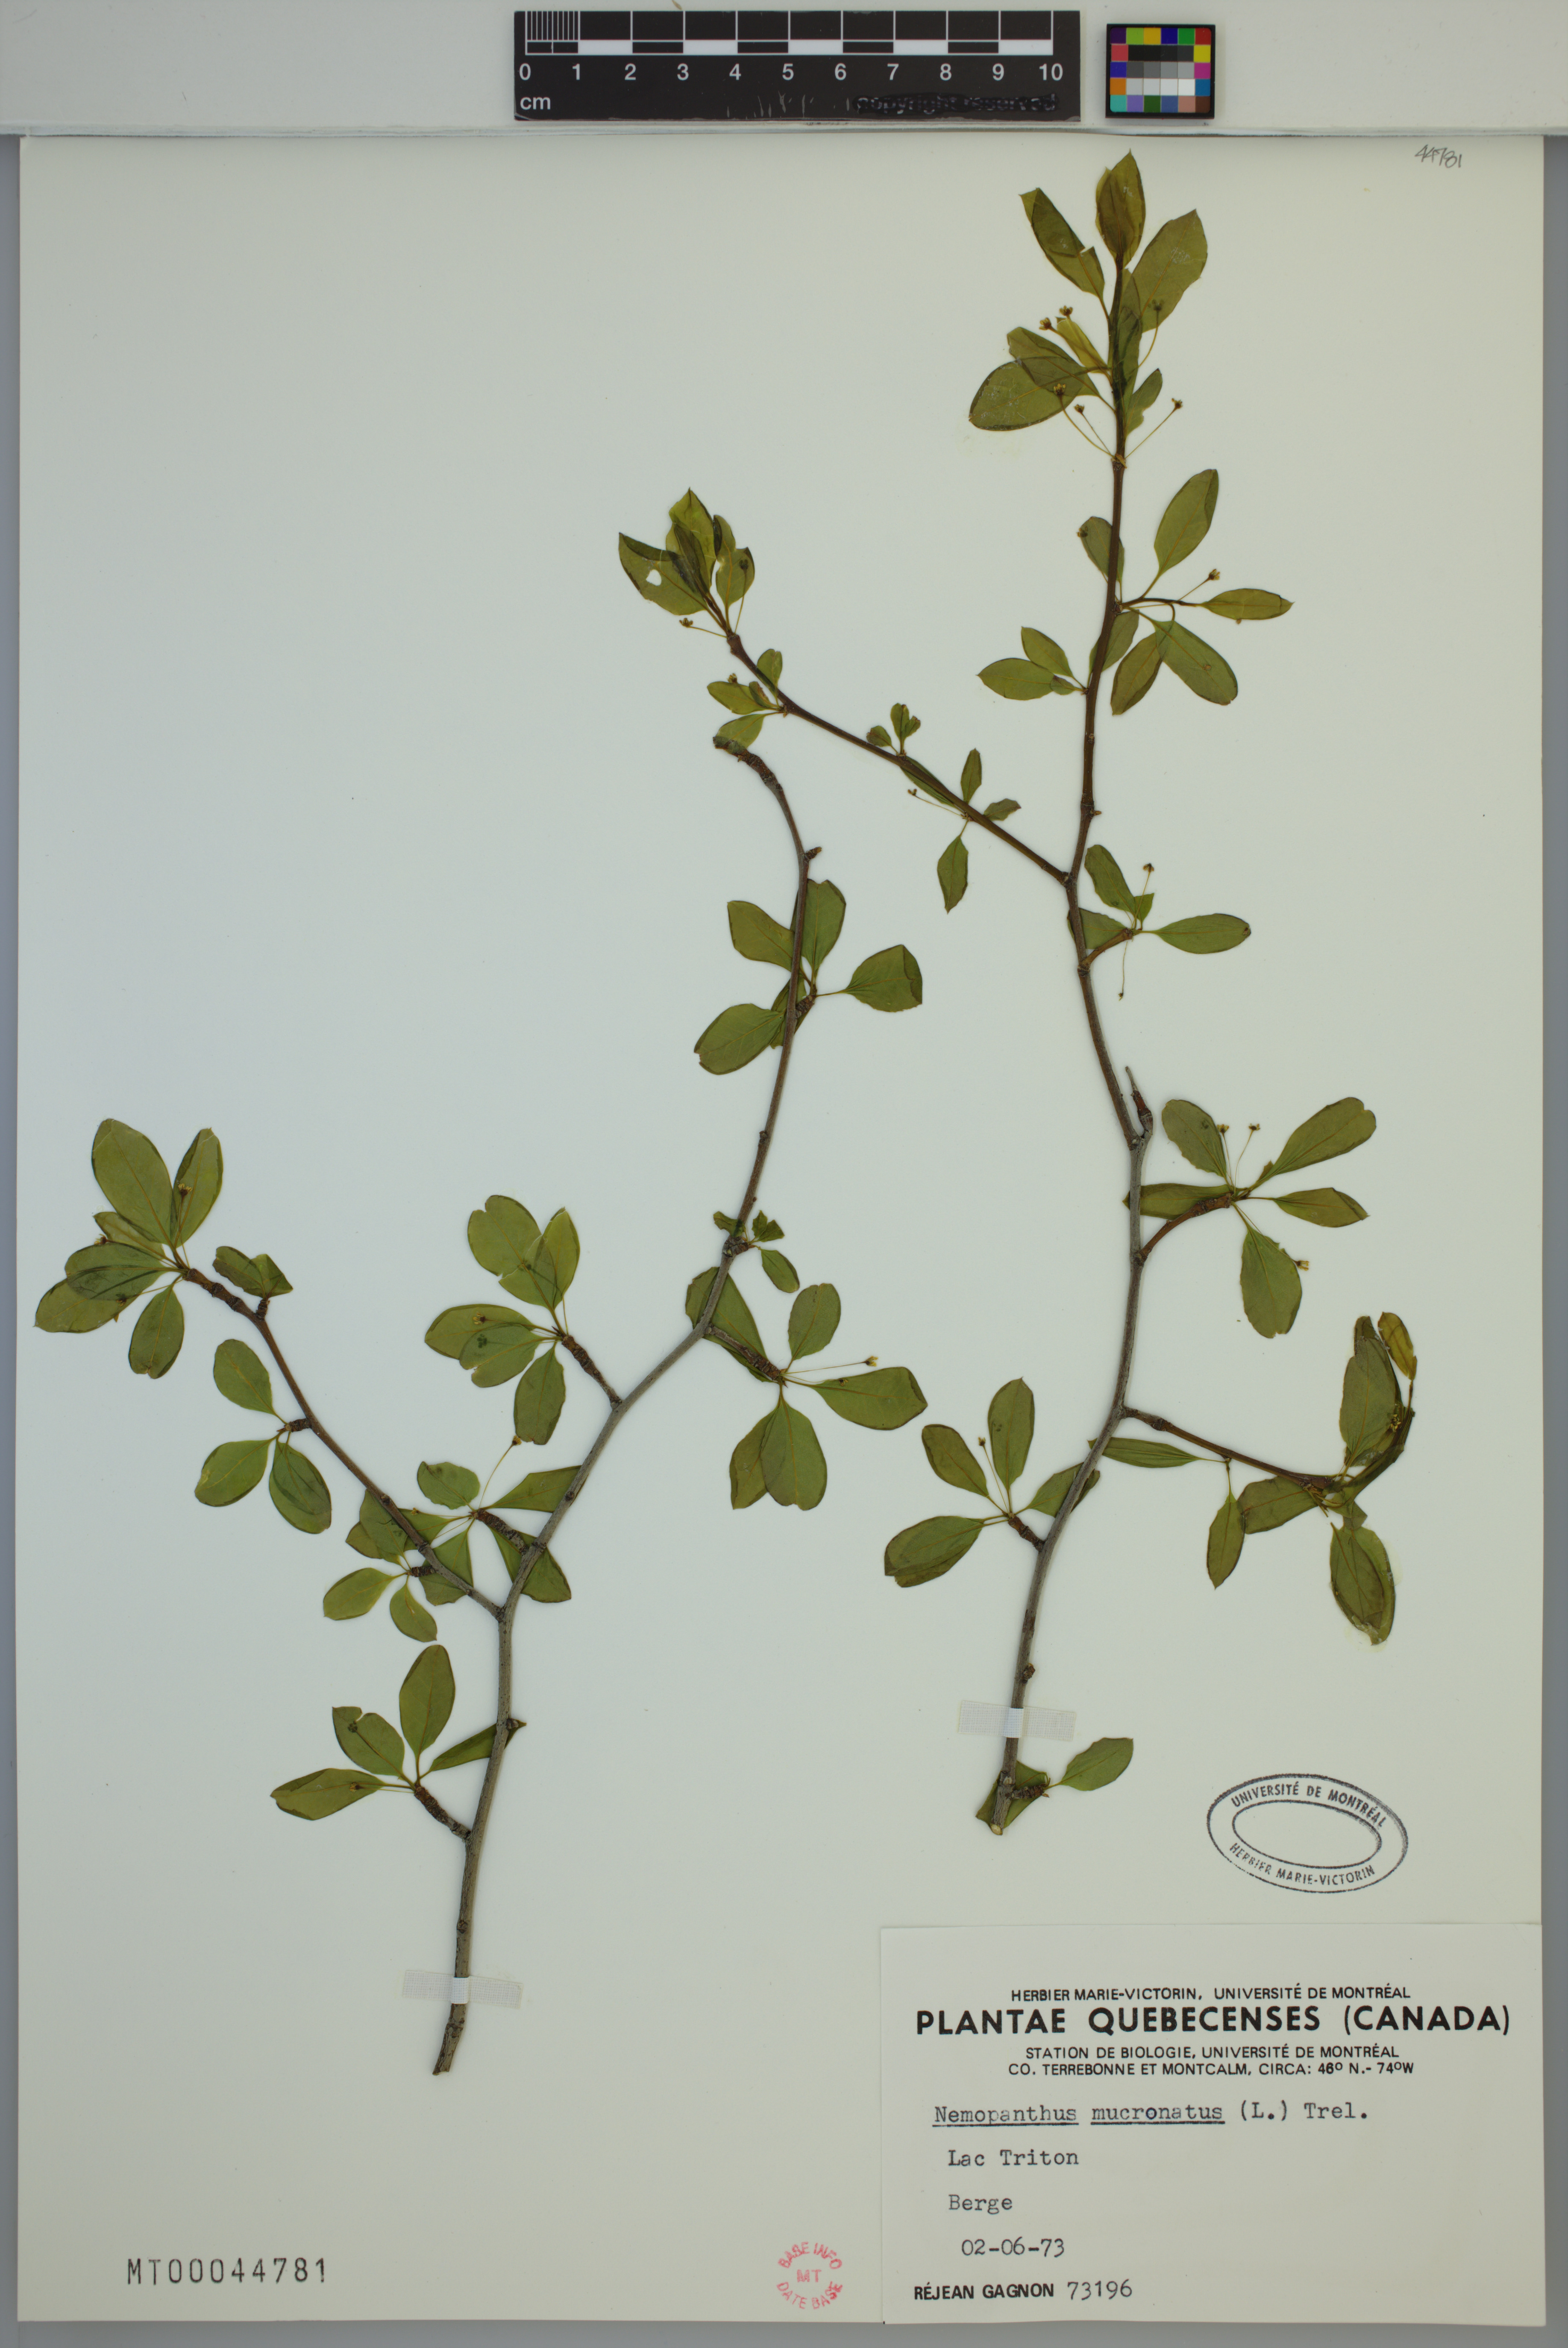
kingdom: Plantae
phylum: Tracheophyta
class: Magnoliopsida
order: Aquifoliales
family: Aquifoliaceae
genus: Ilex
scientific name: Ilex mucronata
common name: Catberry
